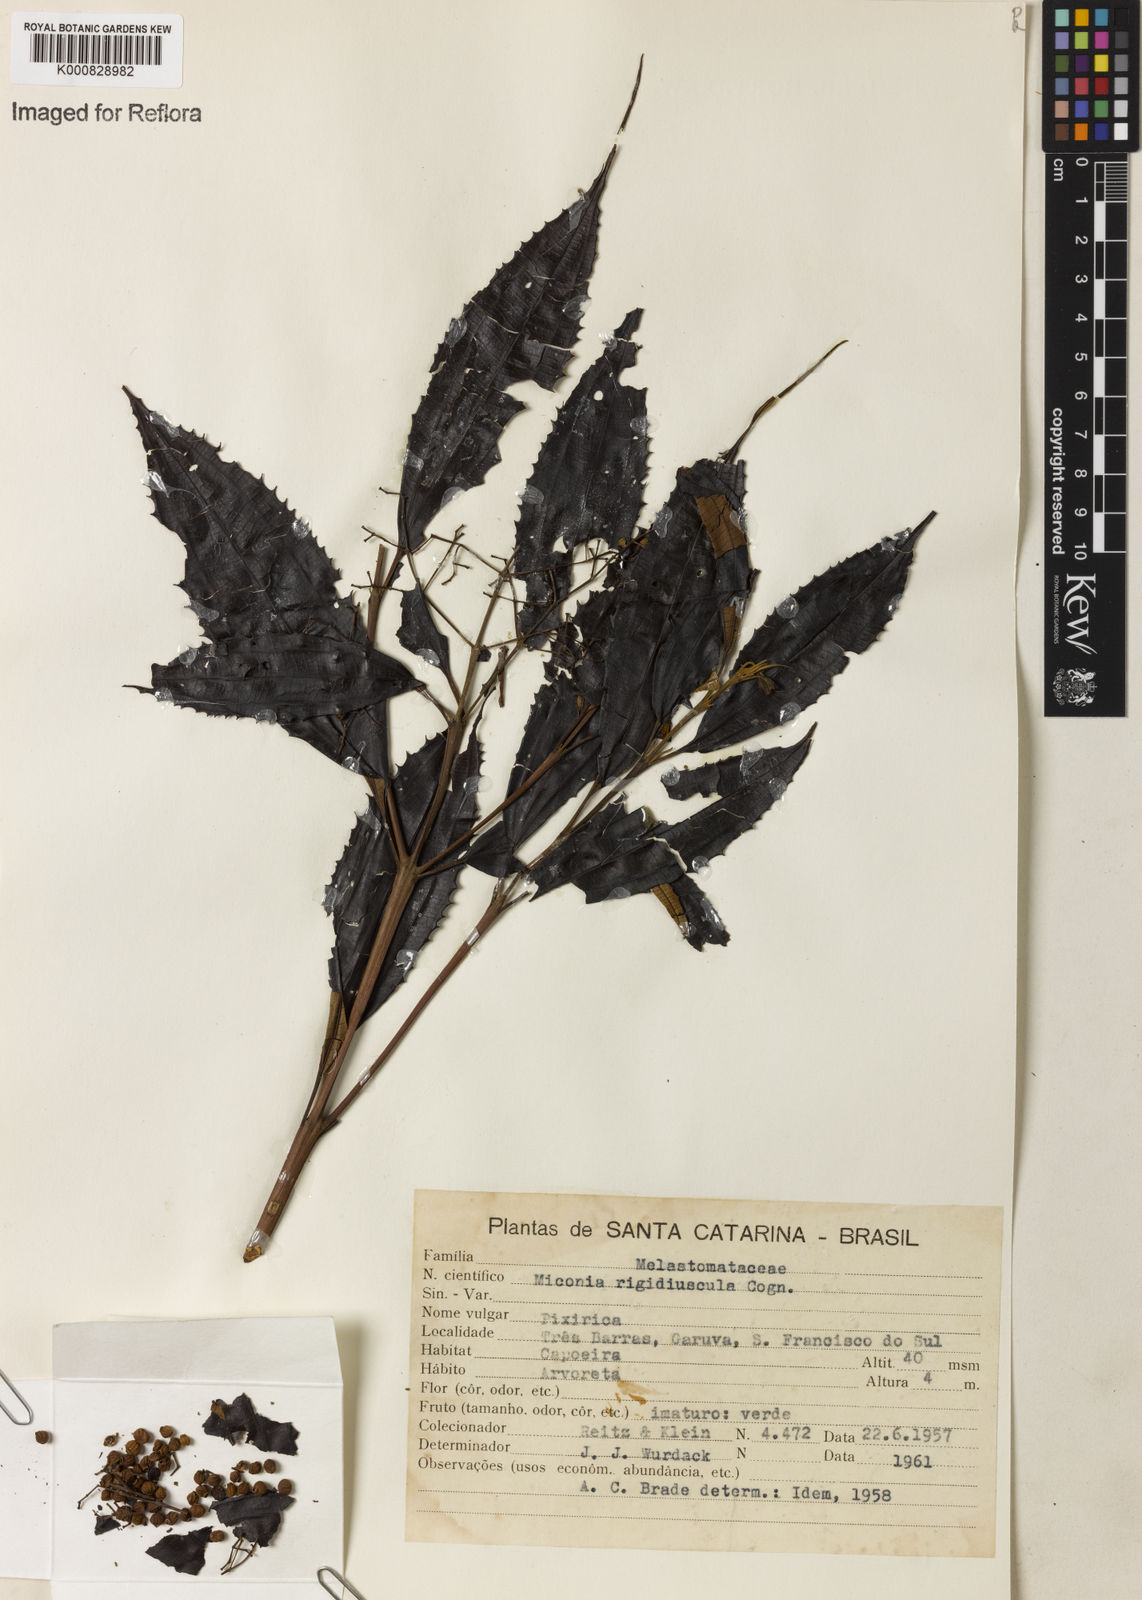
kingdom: Plantae
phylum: Tracheophyta
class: Magnoliopsida
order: Myrtales
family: Melastomataceae
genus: Miconia
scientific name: Miconia pusilliflora
